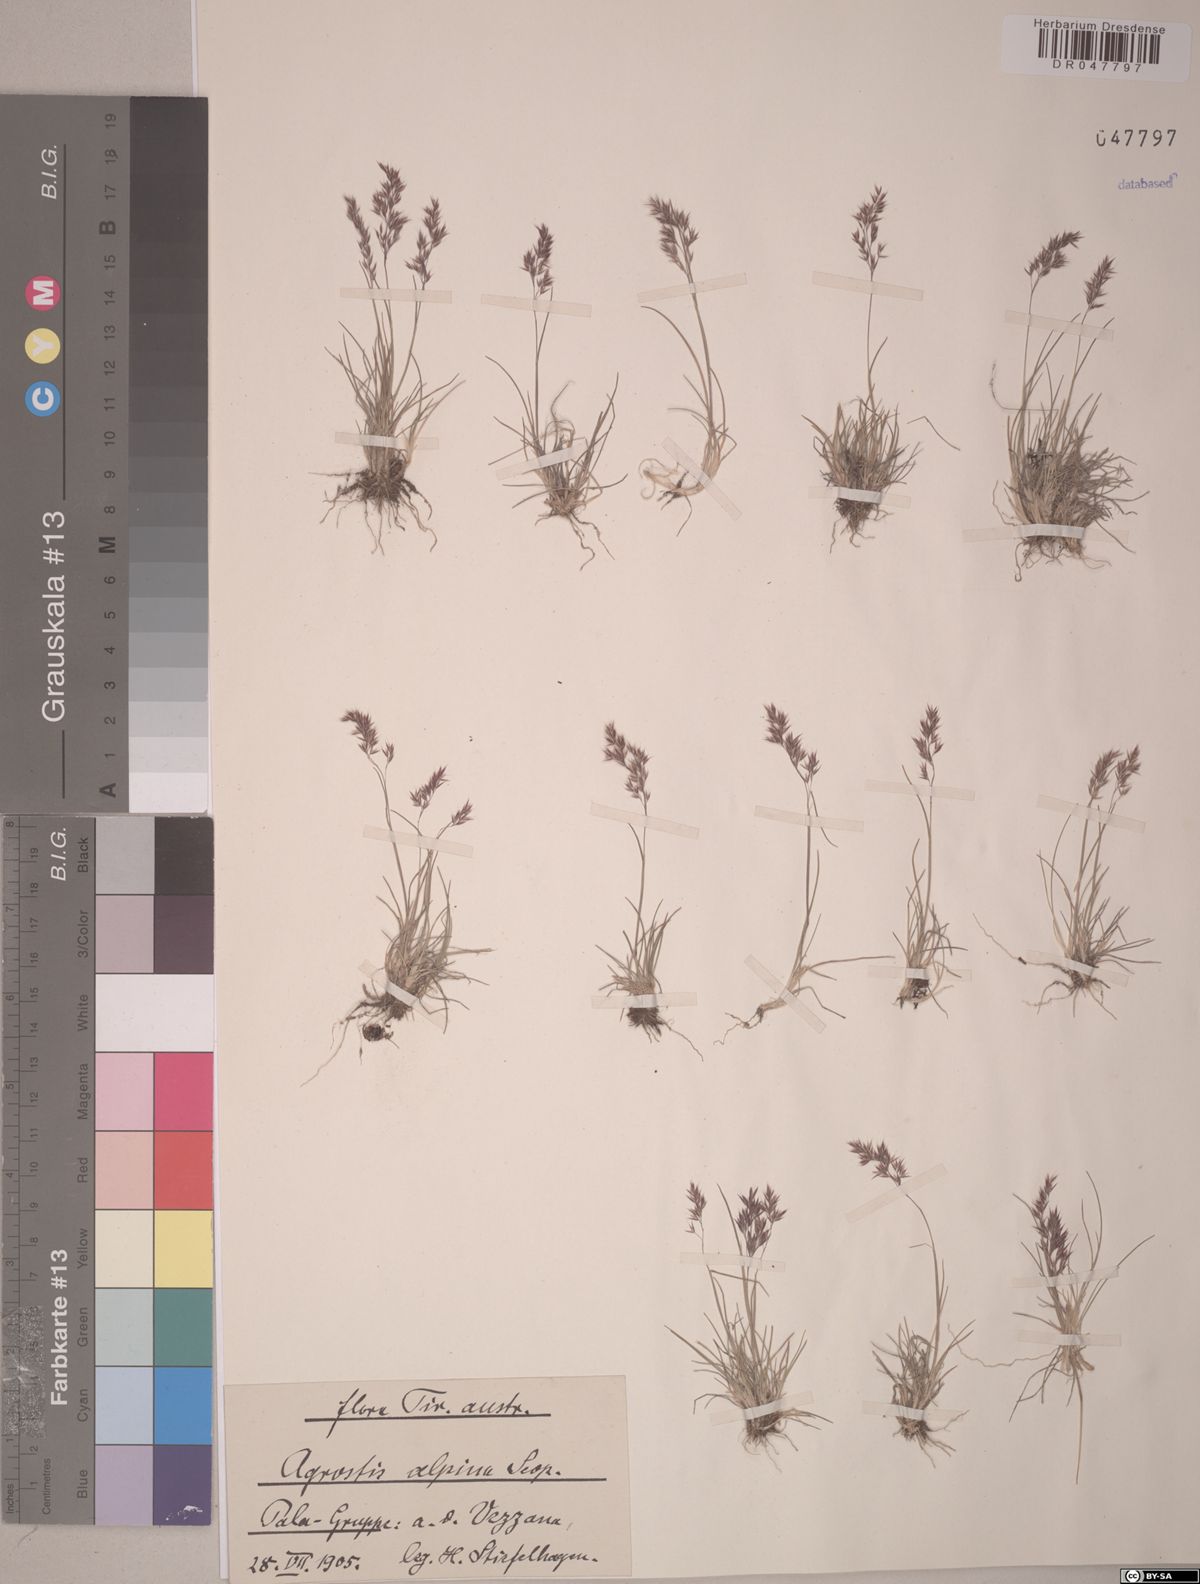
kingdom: Plantae
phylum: Tracheophyta
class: Liliopsida
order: Poales
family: Poaceae
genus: Alpagrostis
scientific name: Alpagrostis alpina
